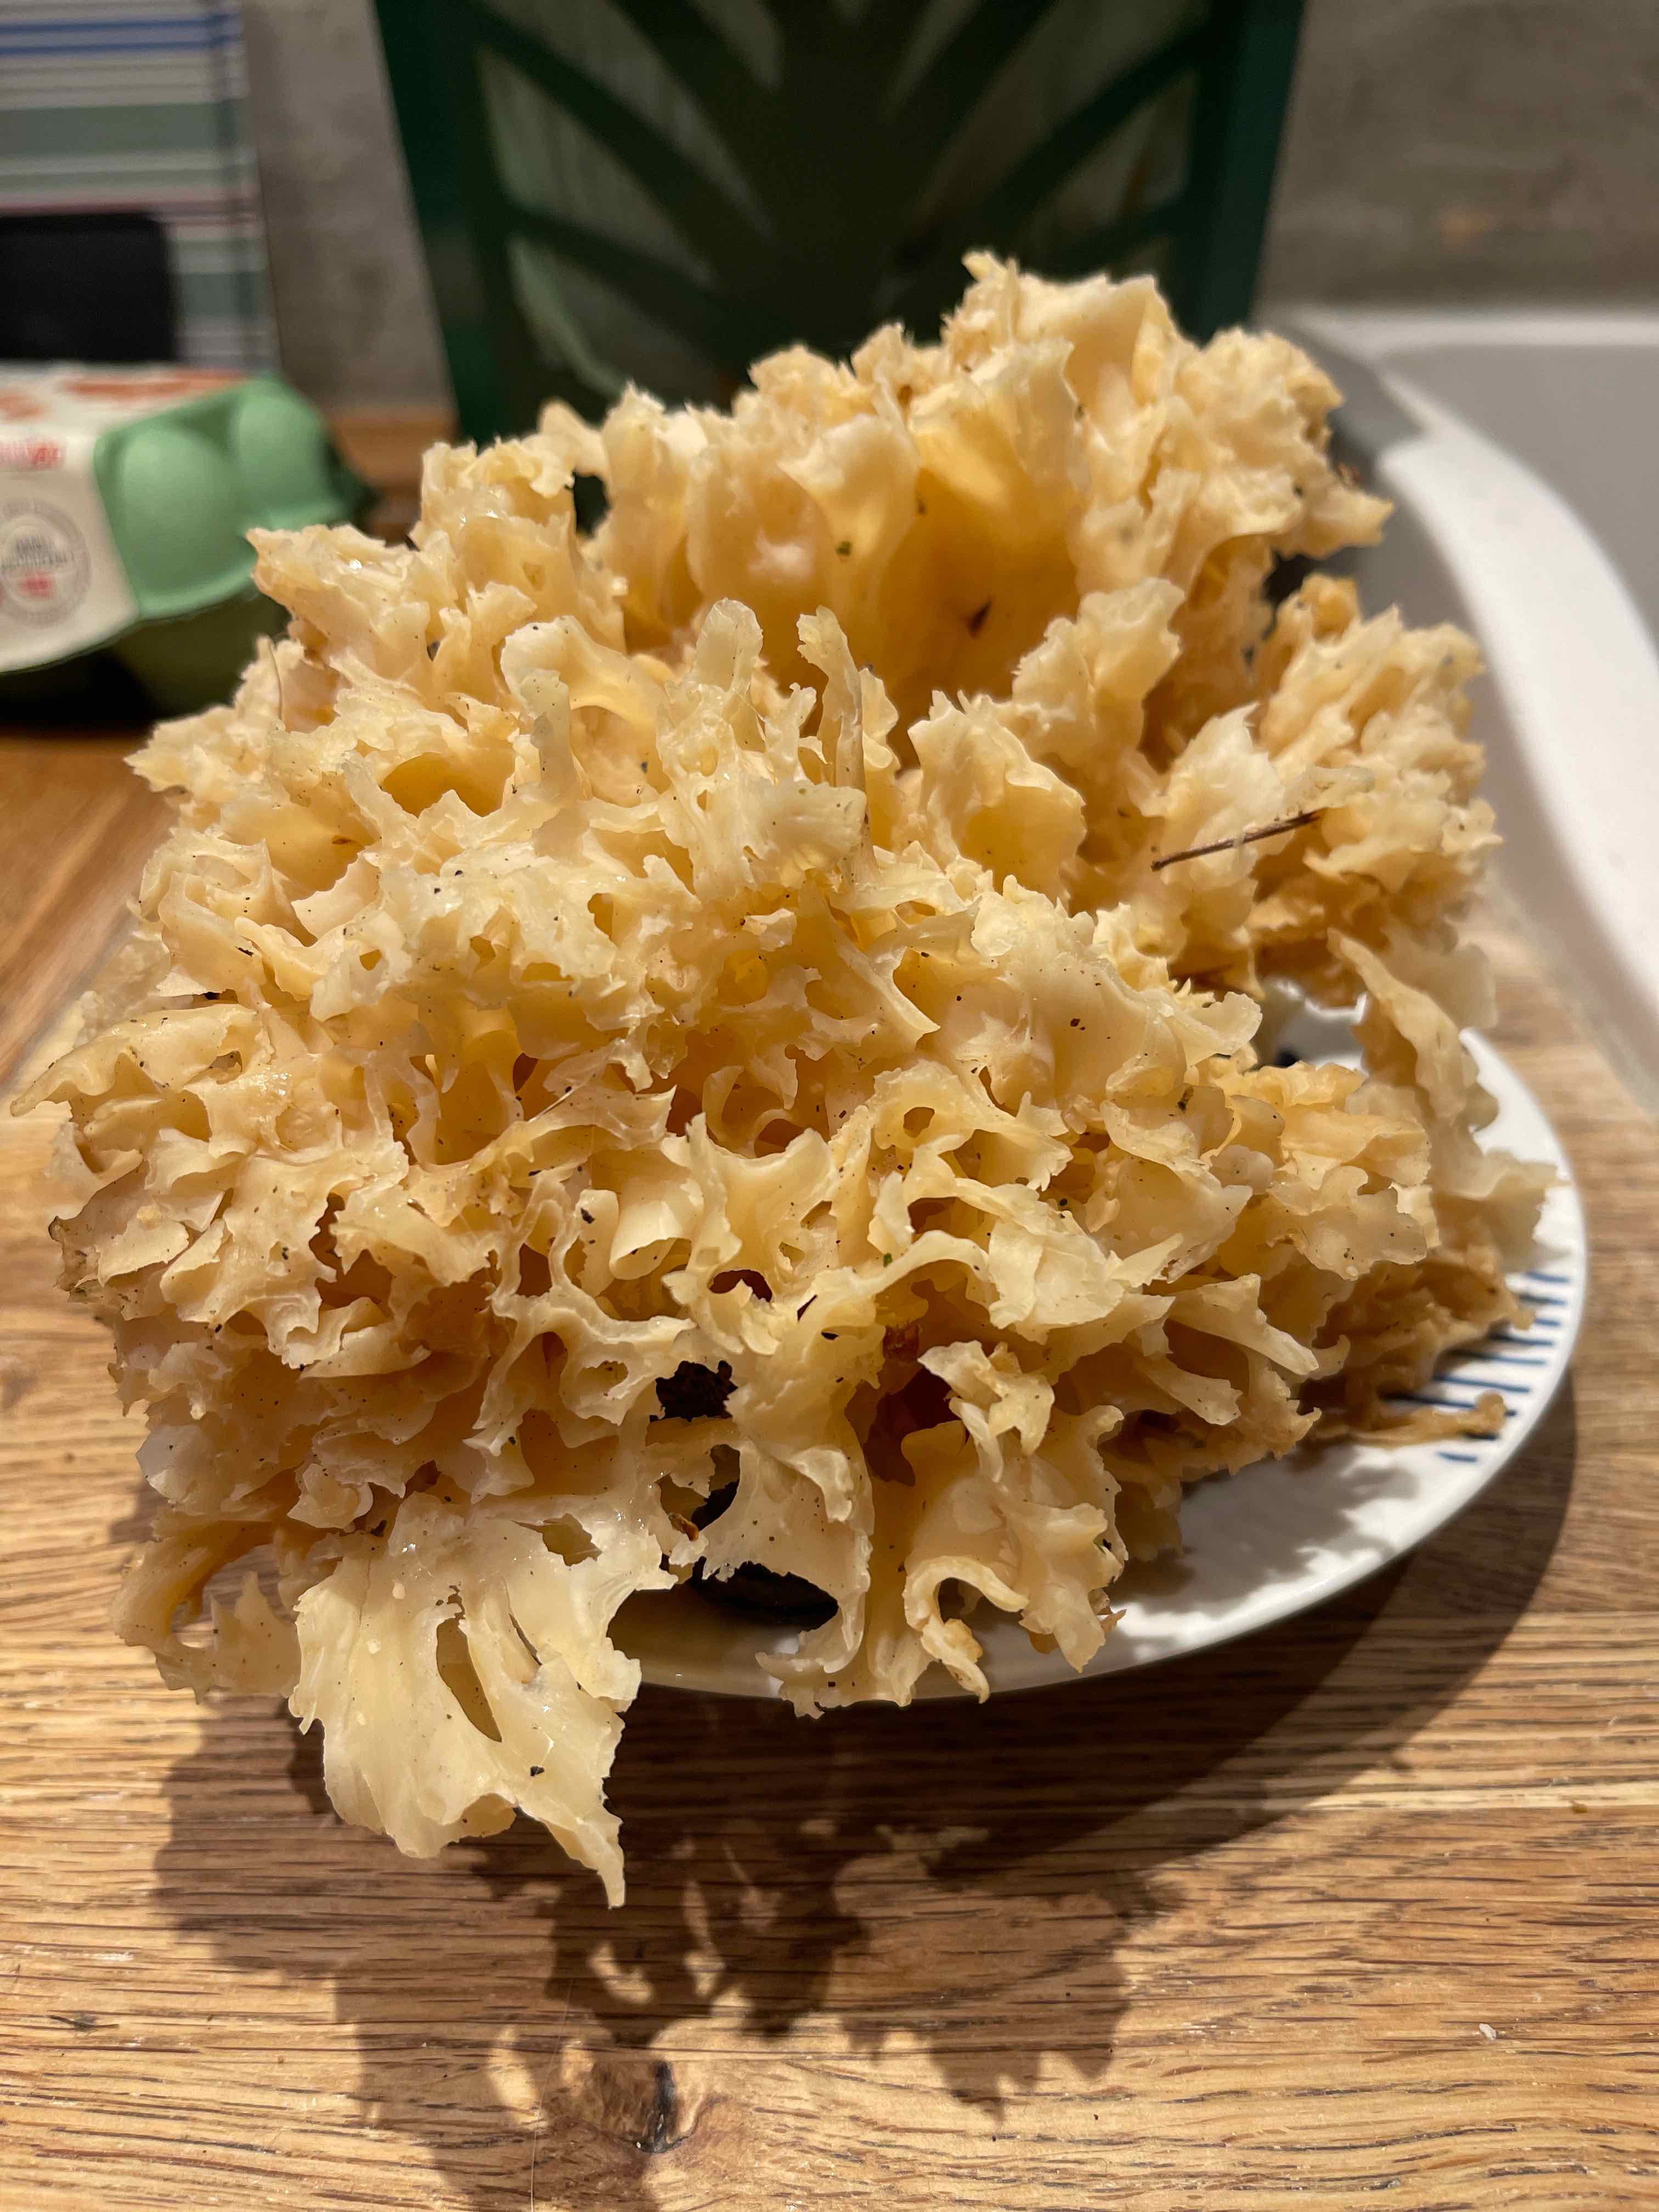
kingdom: Fungi
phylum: Basidiomycota
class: Agaricomycetes
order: Polyporales
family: Sparassidaceae
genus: Sparassis
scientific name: Sparassis crispa
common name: kruset blomkålssvamp
